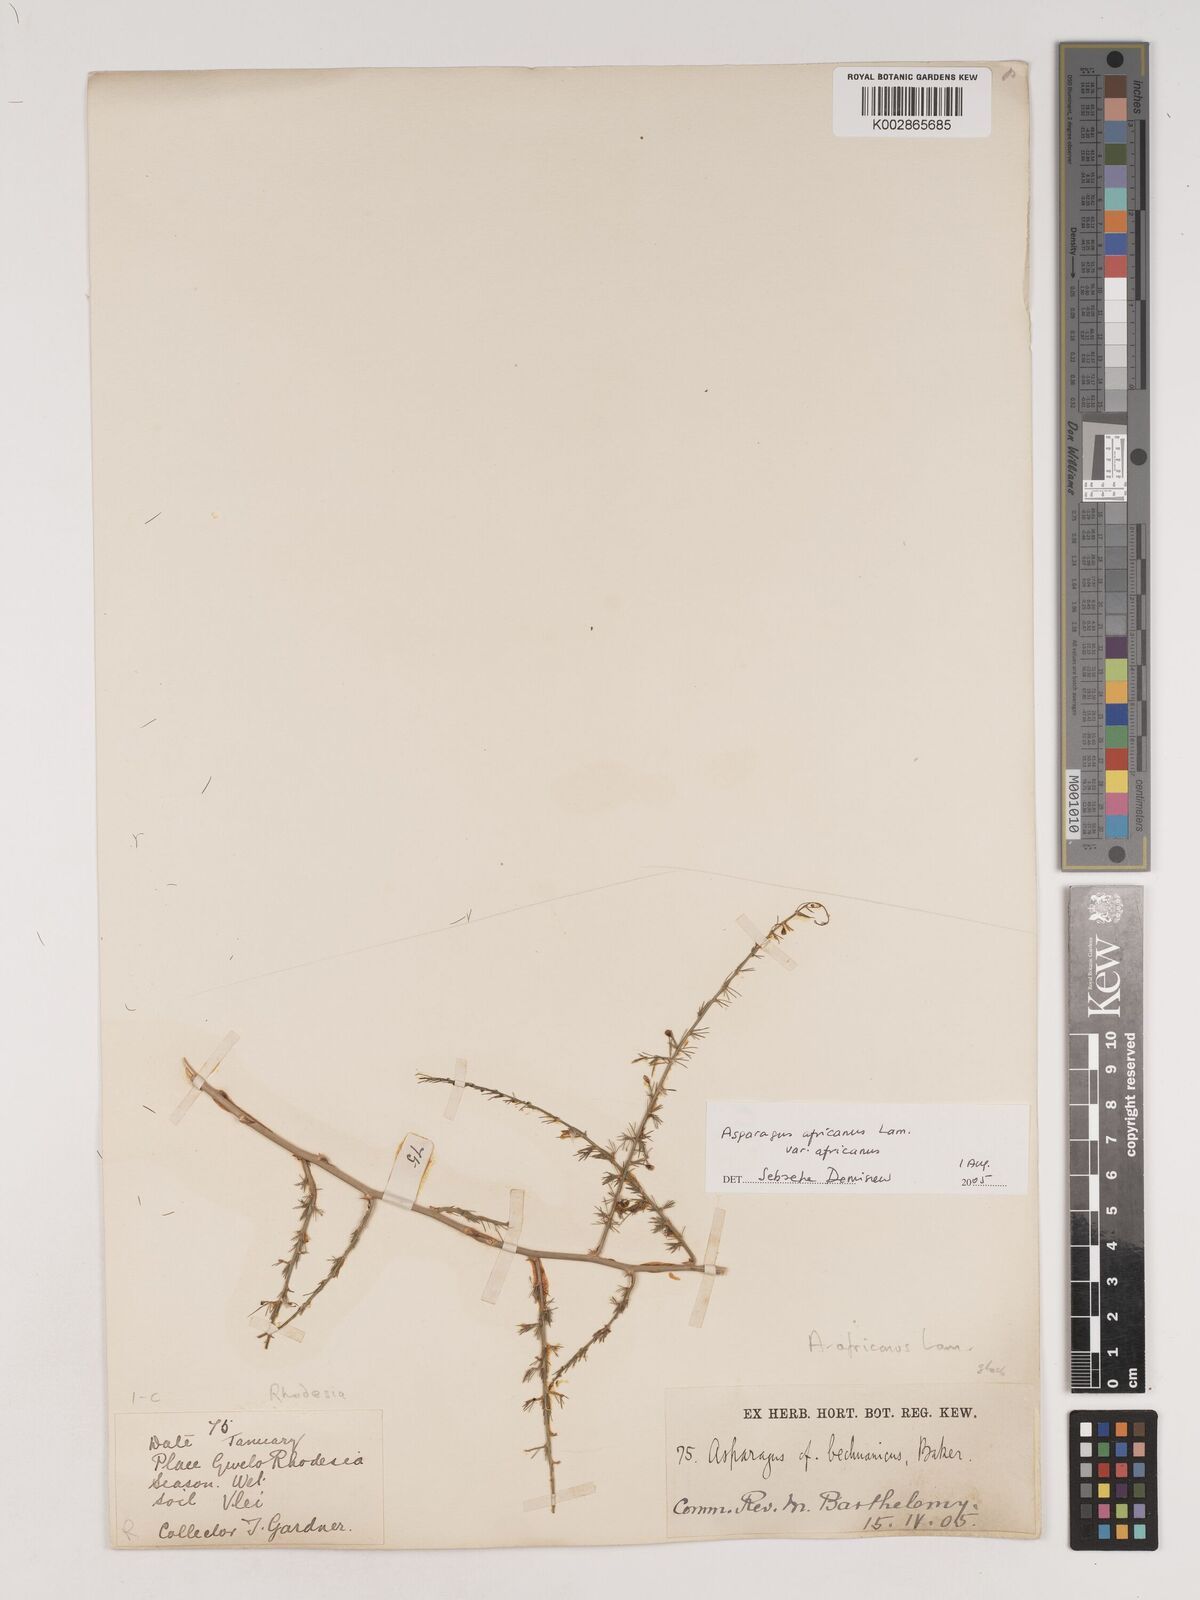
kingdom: Plantae
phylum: Tracheophyta
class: Liliopsida
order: Asparagales
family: Asparagaceae
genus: Asparagus
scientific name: Asparagus
